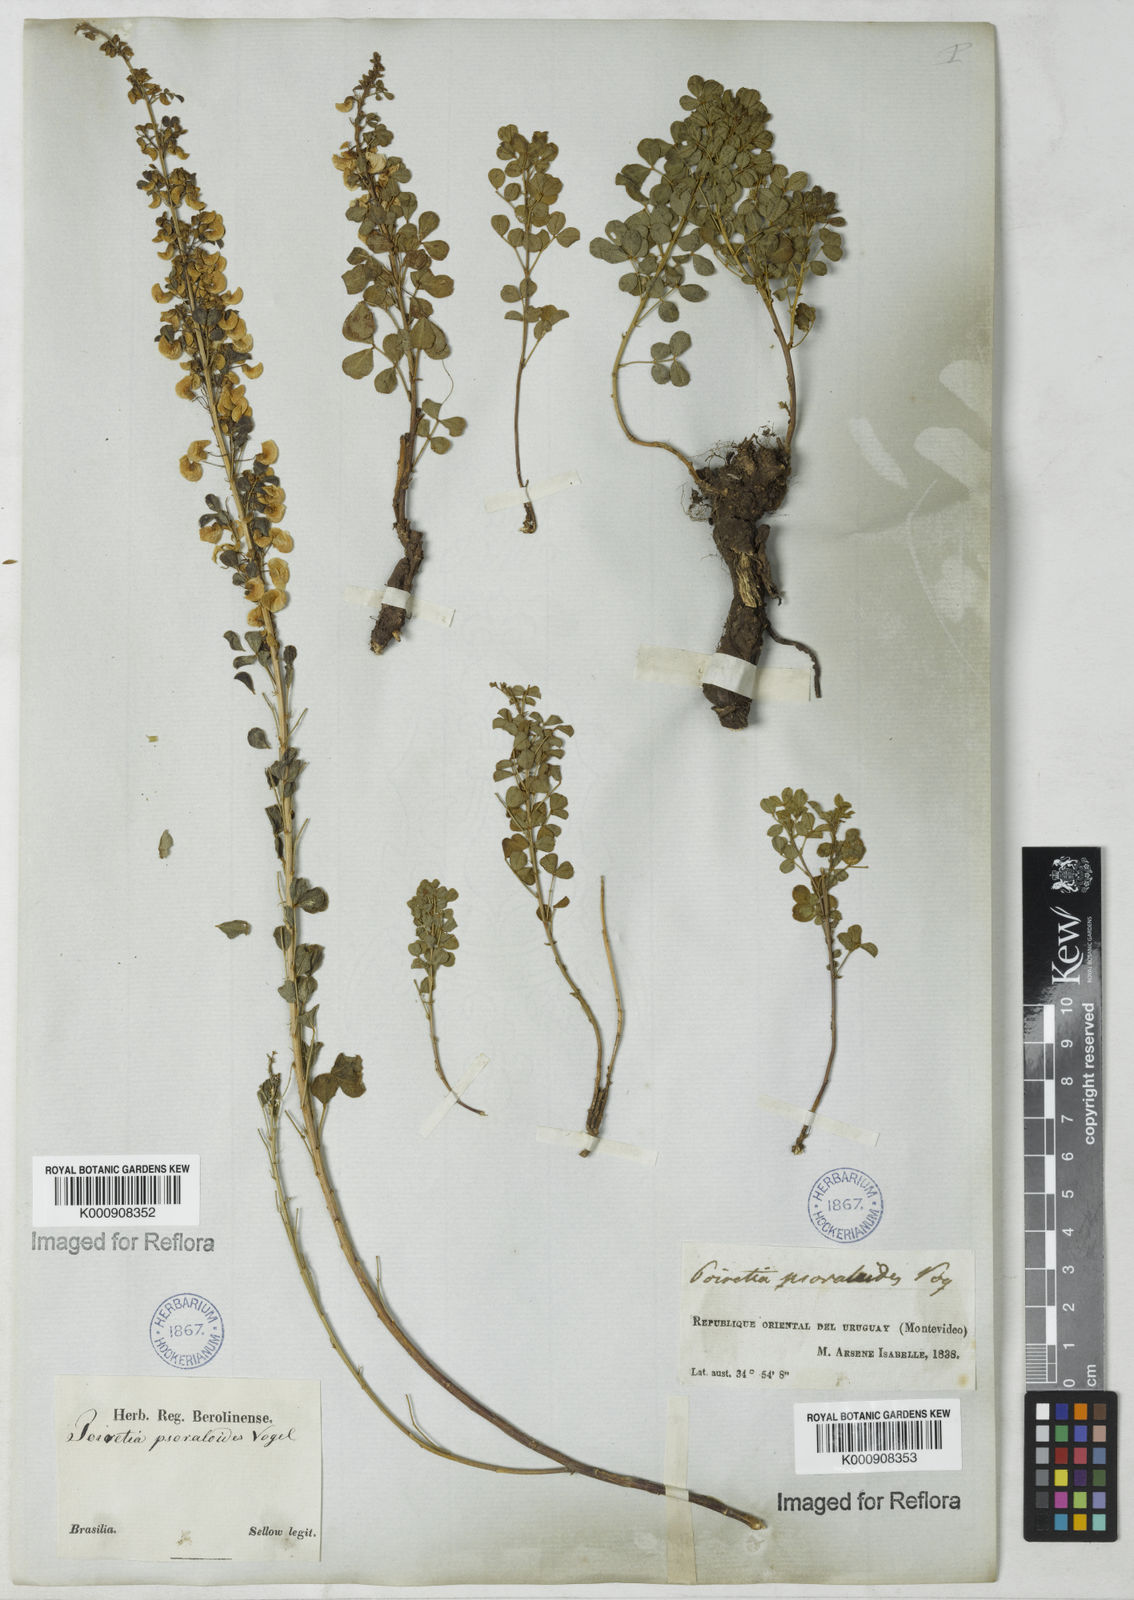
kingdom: Plantae
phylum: Tracheophyta
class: Magnoliopsida
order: Fabales
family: Fabaceae
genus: Poiretia
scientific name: Poiretia
